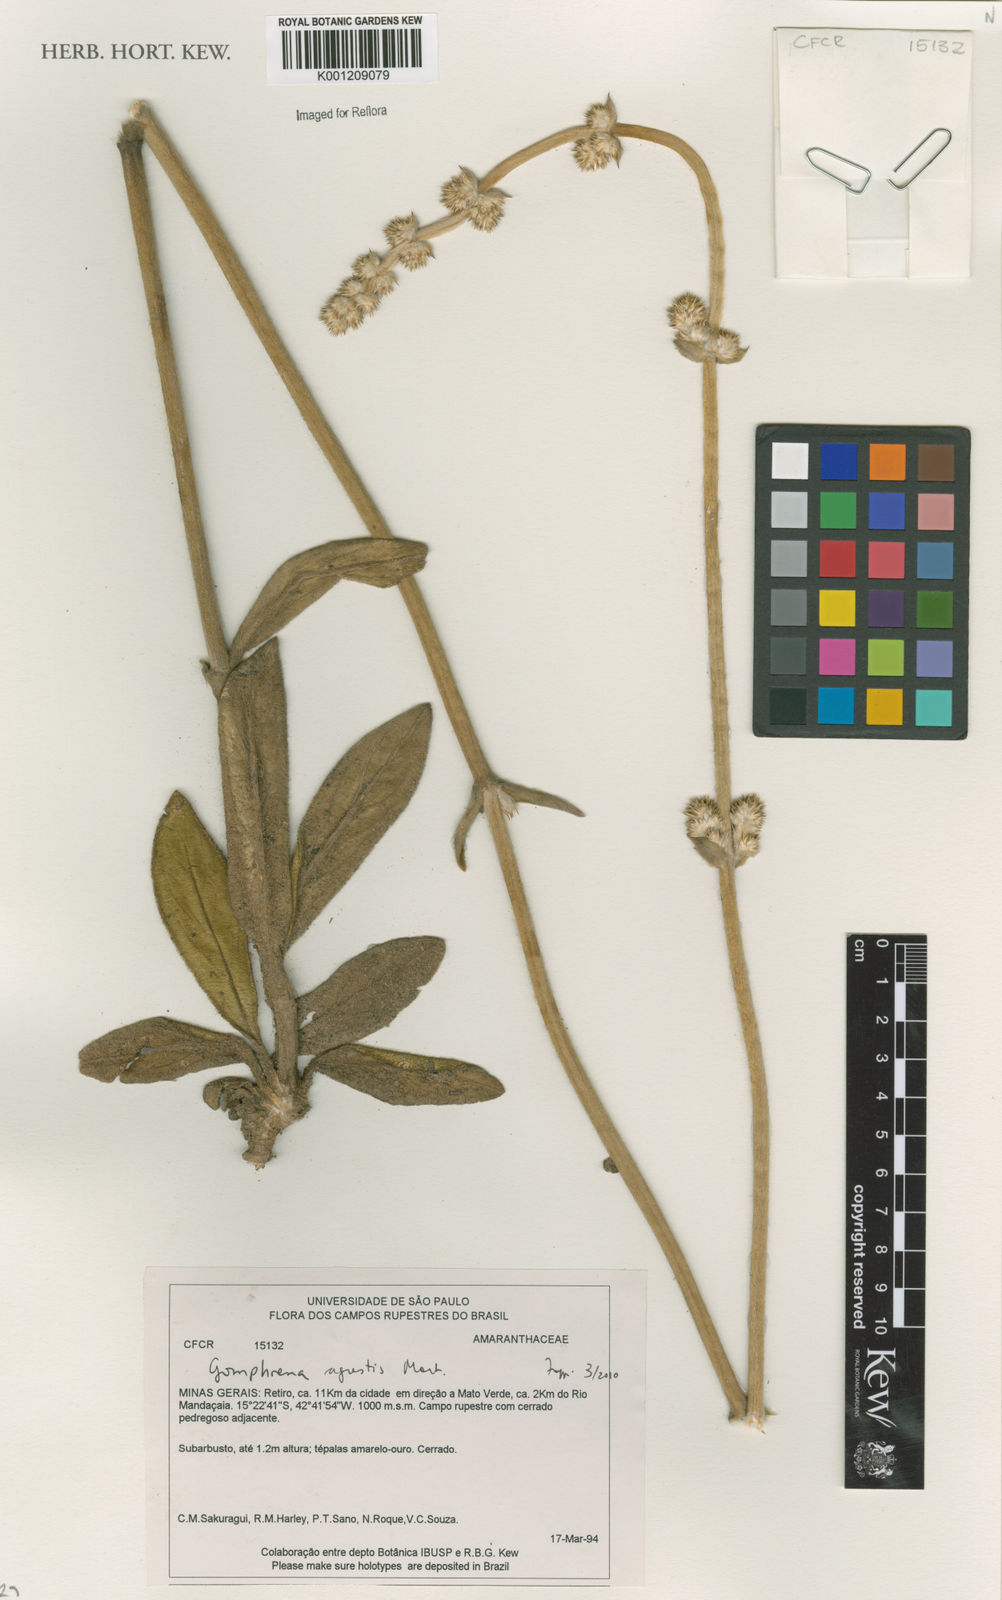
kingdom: Plantae
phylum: Tracheophyta
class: Magnoliopsida
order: Caryophyllales
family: Amaranthaceae
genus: Gomphrena
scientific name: Gomphrena agrestis
